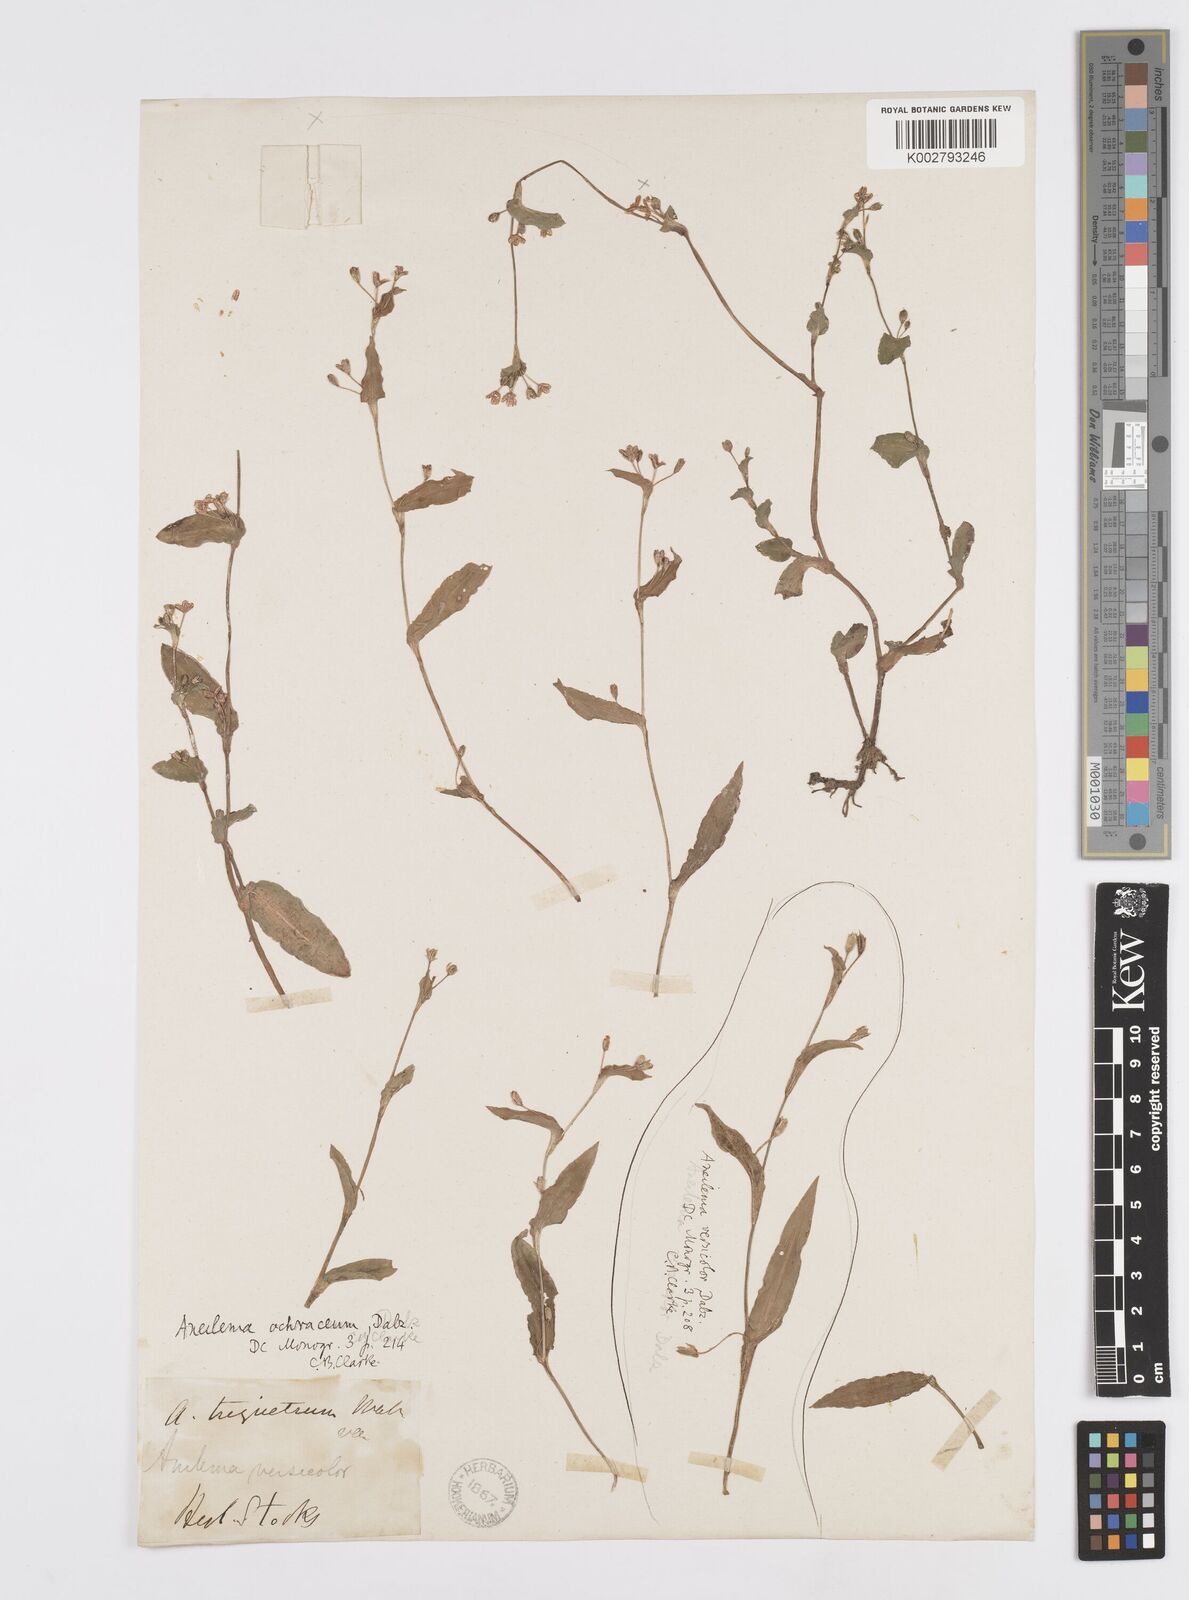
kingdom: Plantae
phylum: Tracheophyta
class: Liliopsida
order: Commelinales
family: Commelinaceae
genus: Murdannia
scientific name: Murdannia
